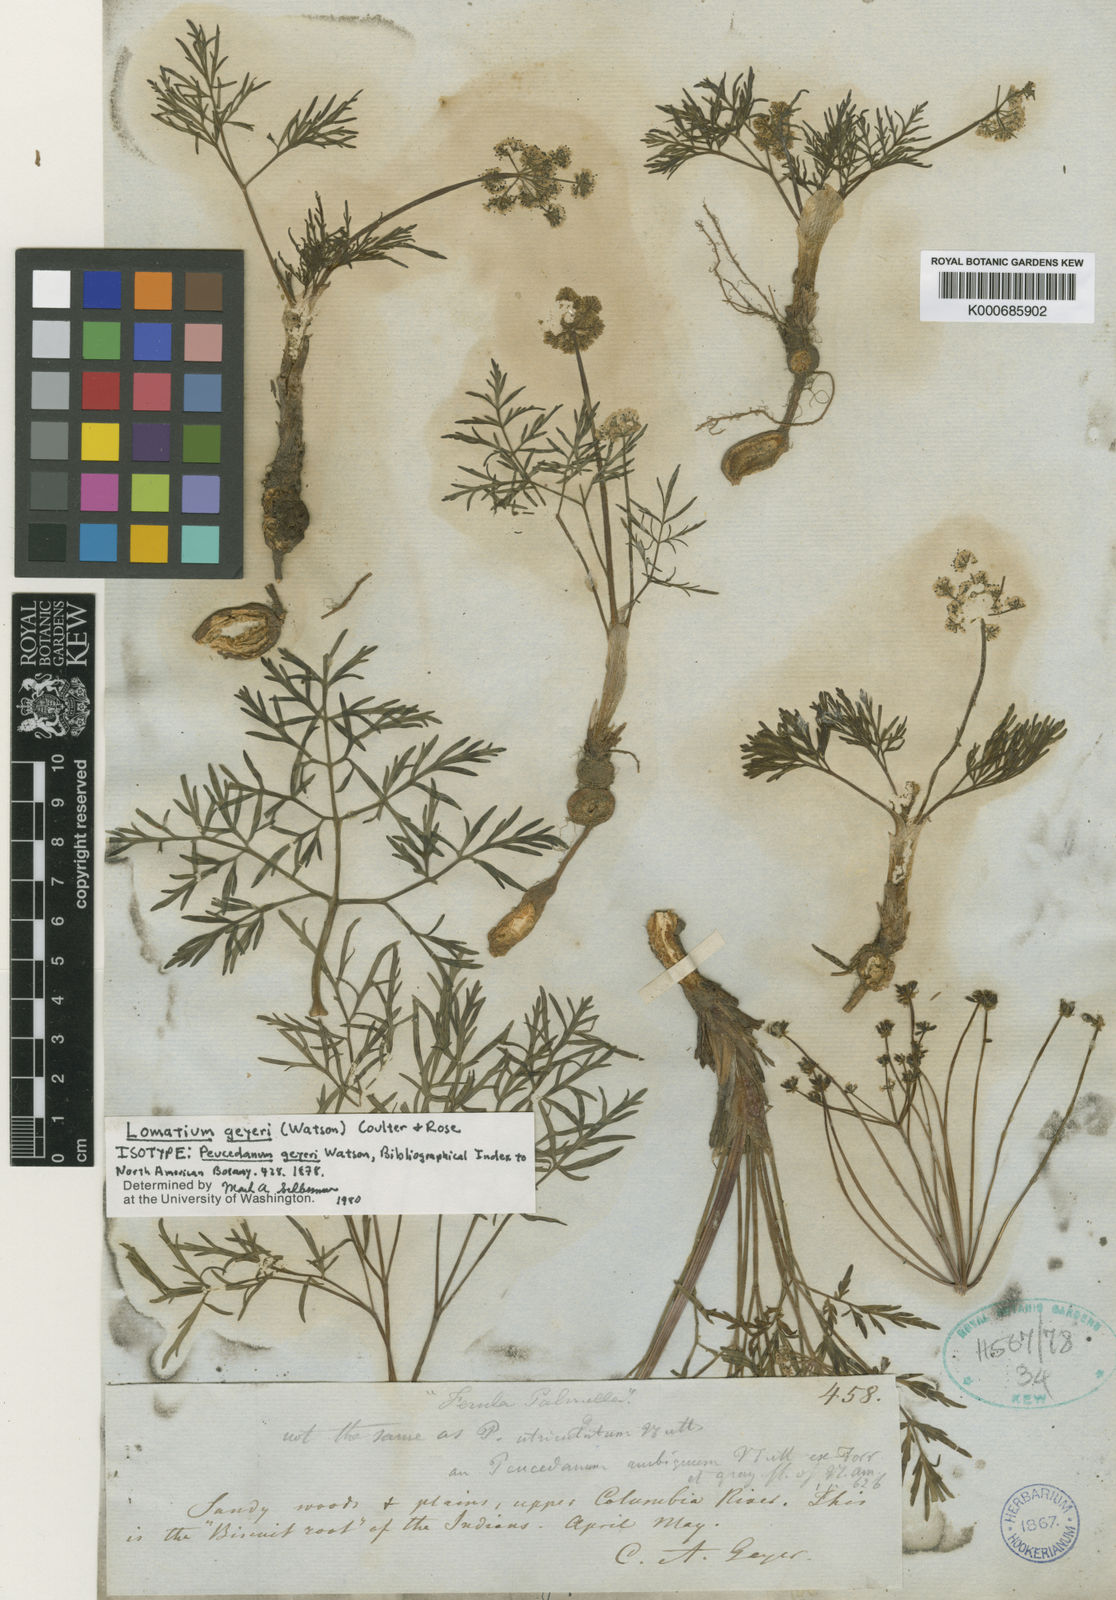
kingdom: Plantae
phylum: Tracheophyta
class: Magnoliopsida
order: Apiales
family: Apiaceae
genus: Lomatium
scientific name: Lomatium geyeri
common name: Geyer's biscuitroot
